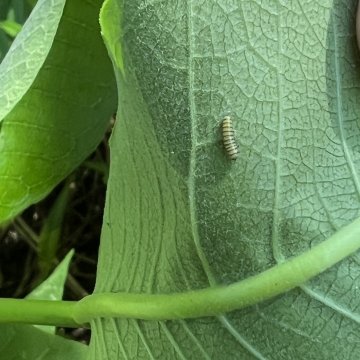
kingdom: Animalia
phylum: Arthropoda
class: Insecta
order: Lepidoptera
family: Nymphalidae
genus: Danaus
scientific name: Danaus plexippus
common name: Monarch
